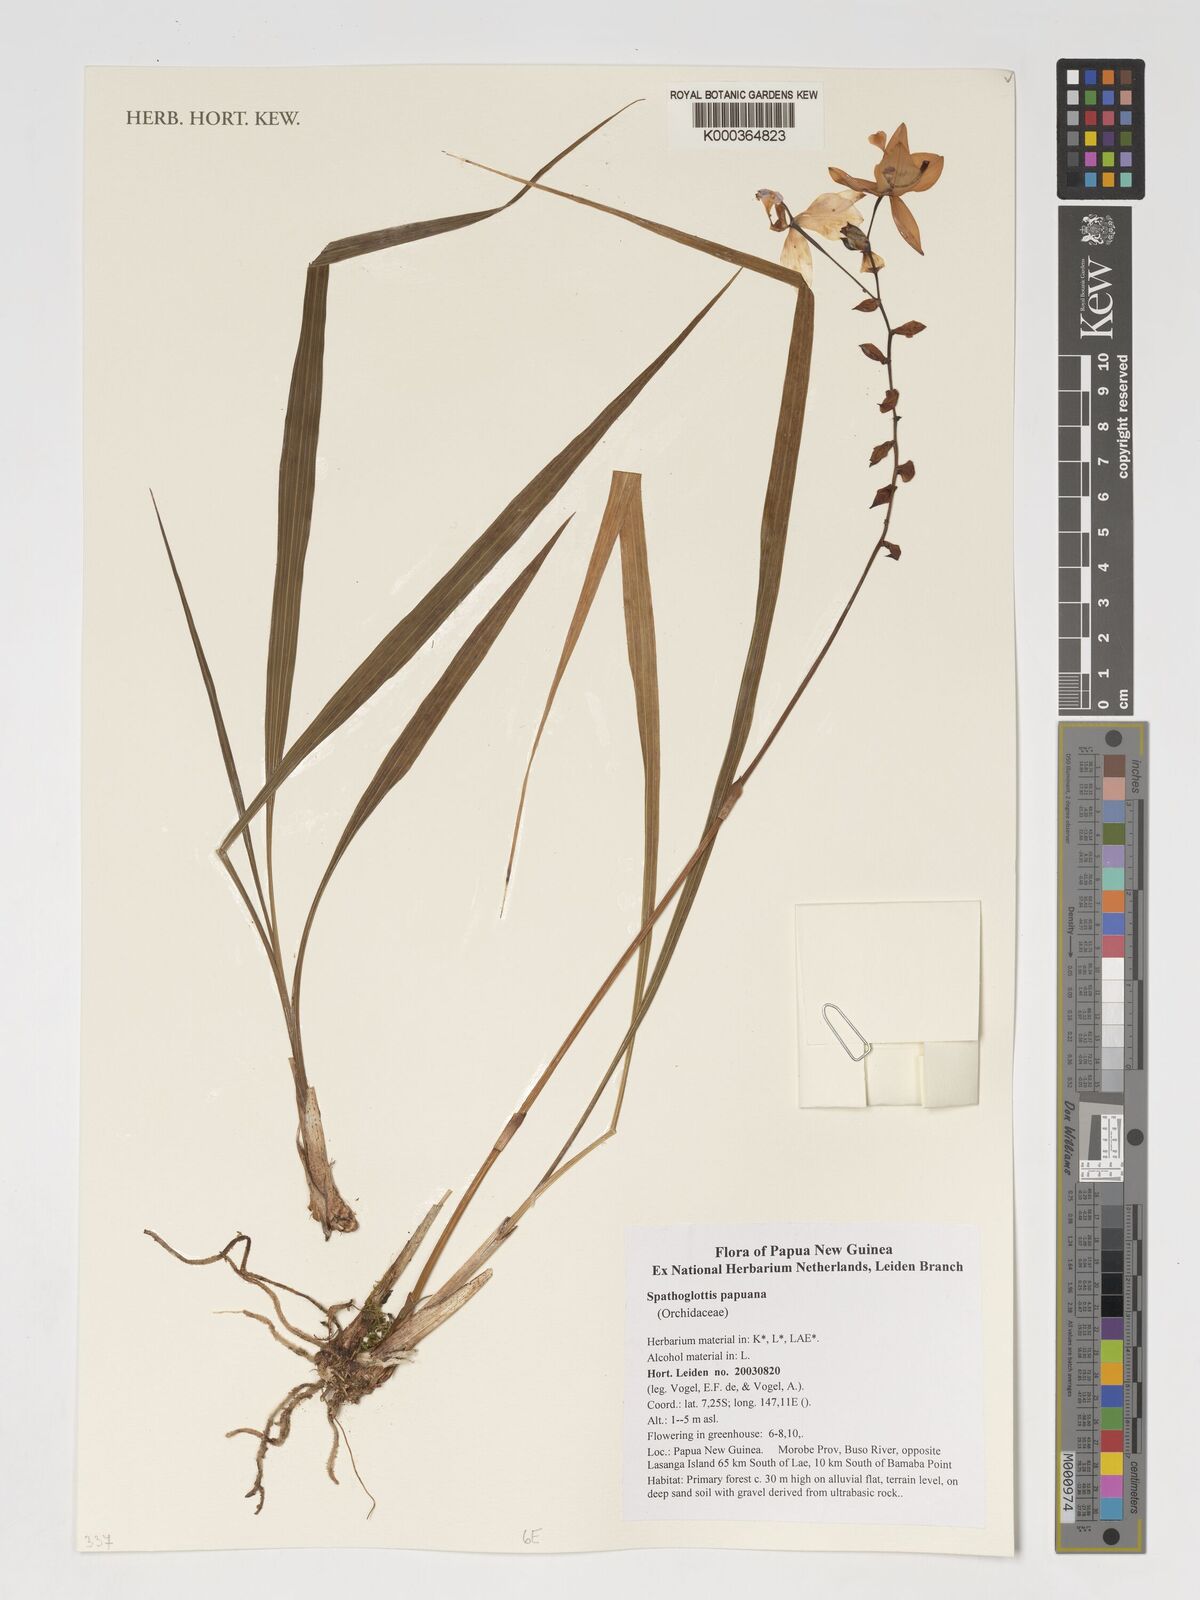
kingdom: Plantae
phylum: Tracheophyta
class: Liliopsida
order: Asparagales
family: Orchidaceae
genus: Spathoglottis
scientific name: Spathoglottis papuana
